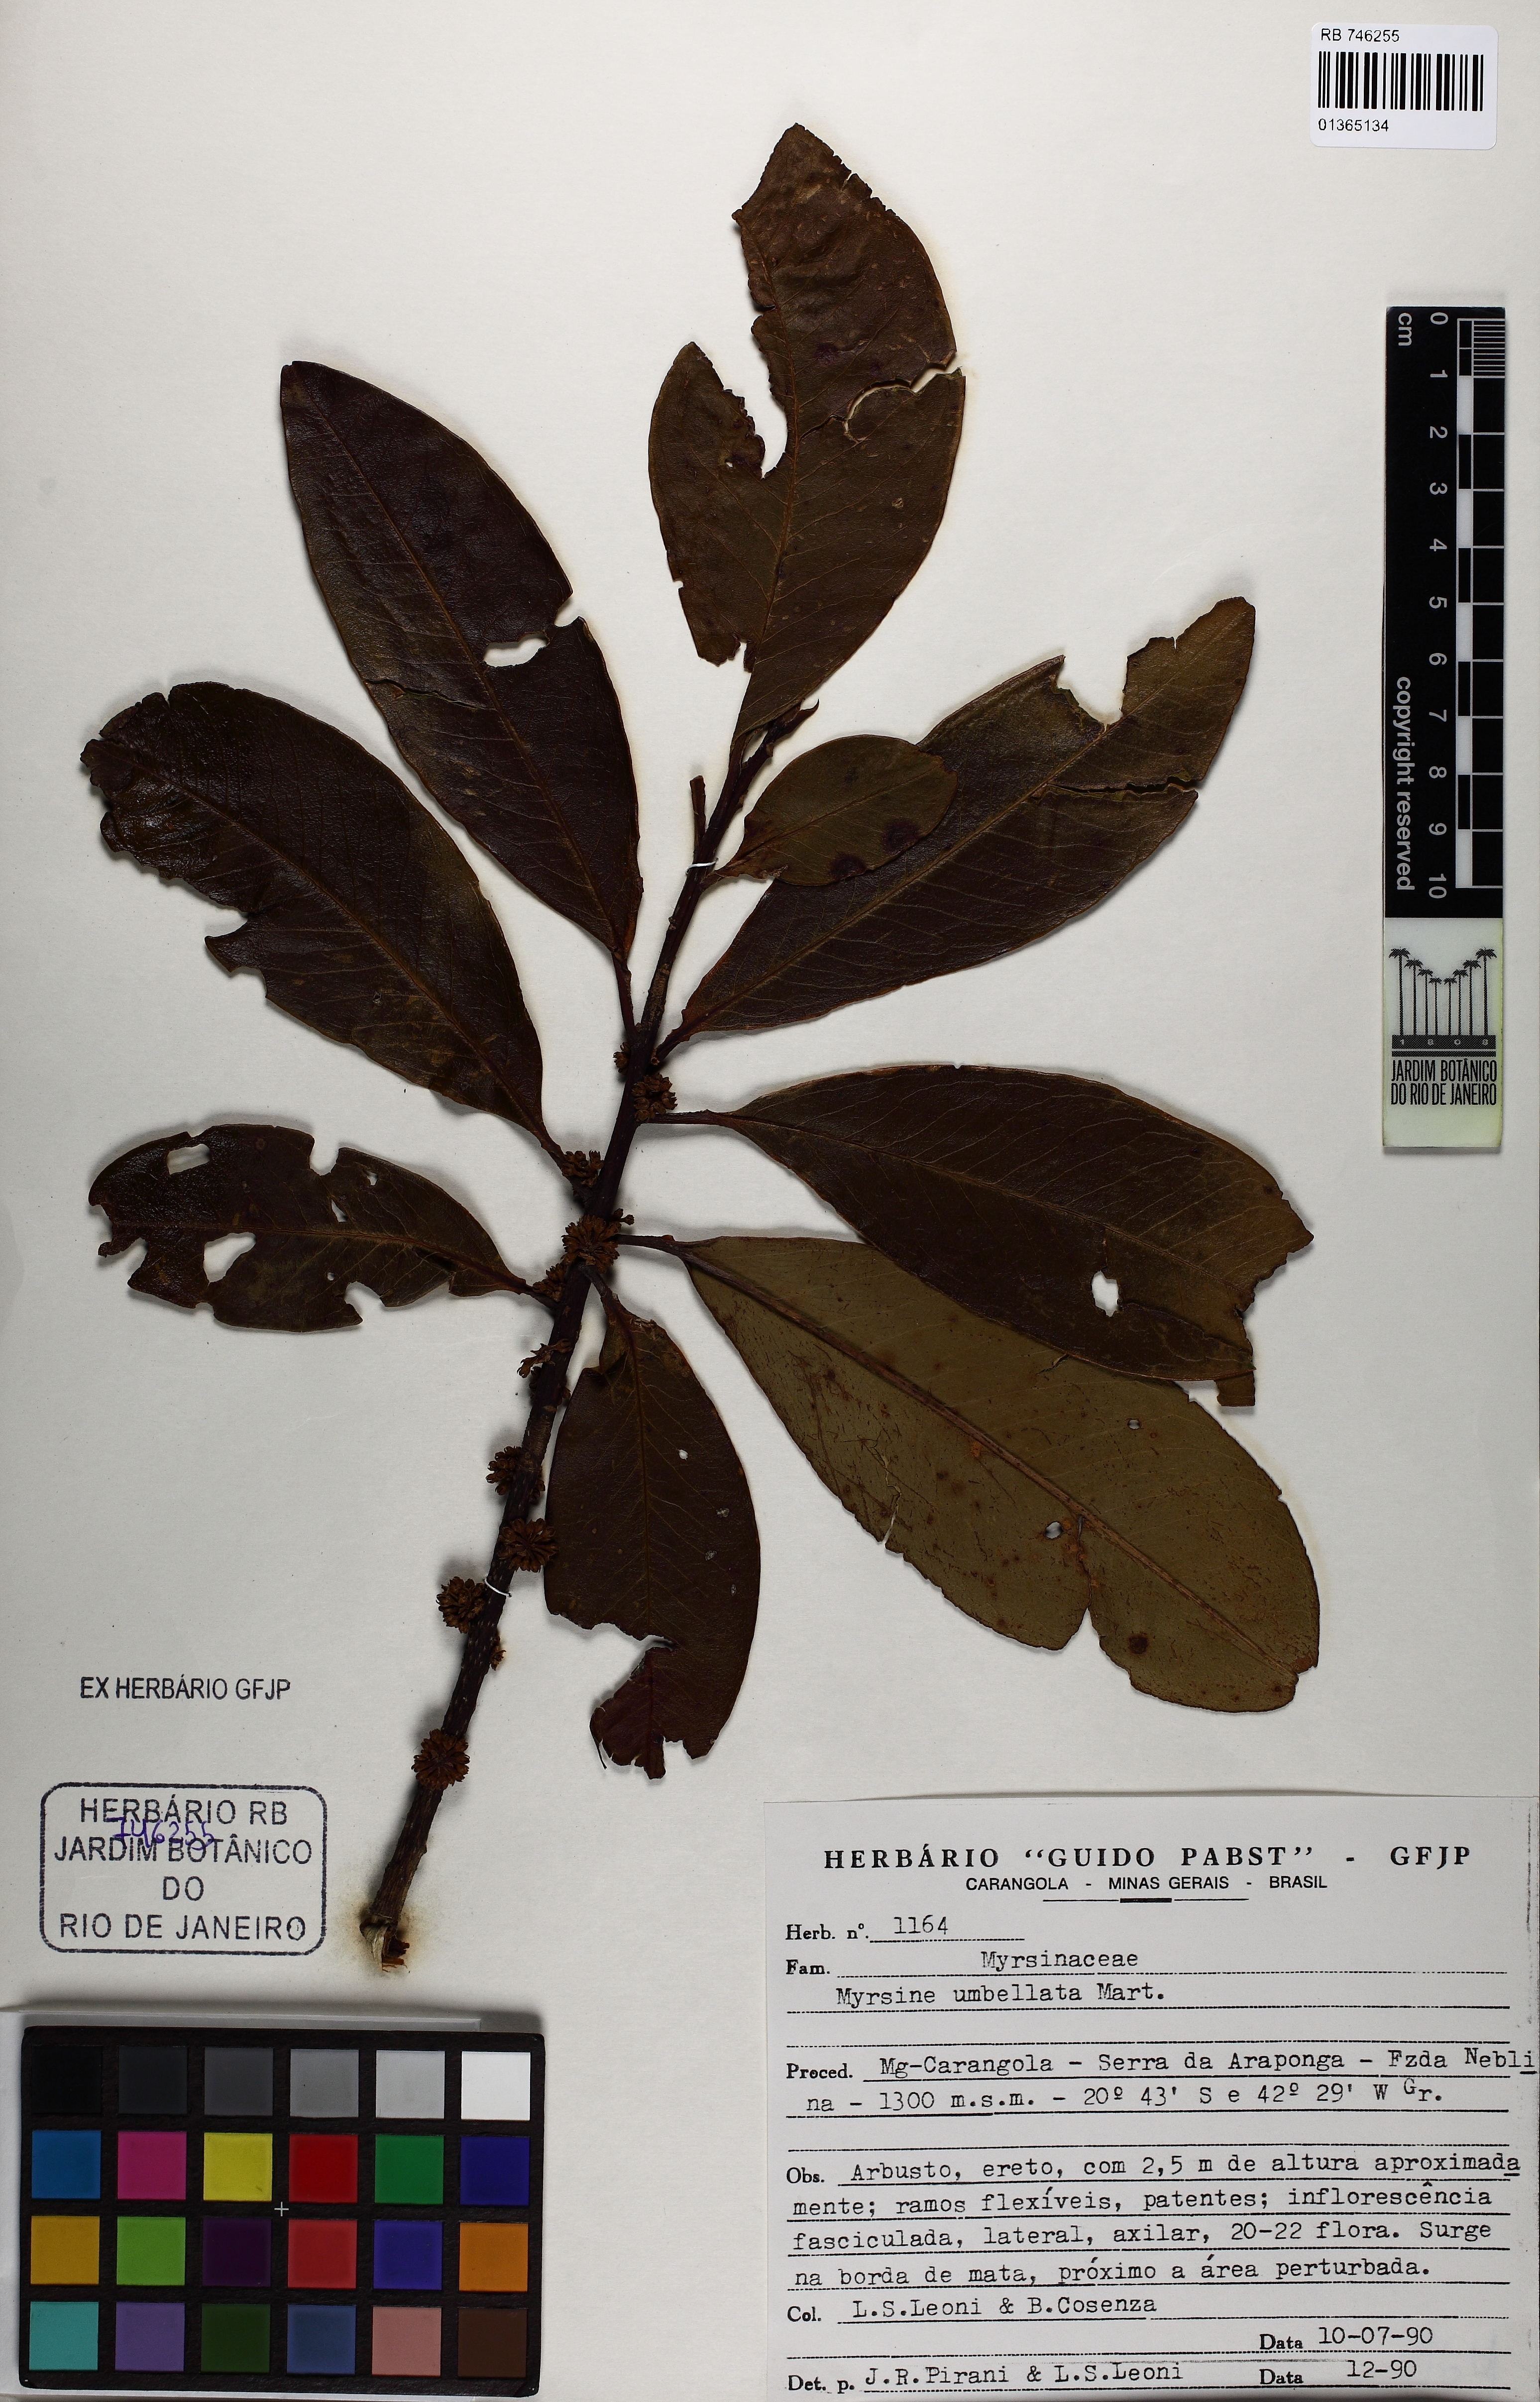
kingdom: Plantae
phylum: Tracheophyta
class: Magnoliopsida
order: Ericales
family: Primulaceae
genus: Myrsine
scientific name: Myrsine umbellata
